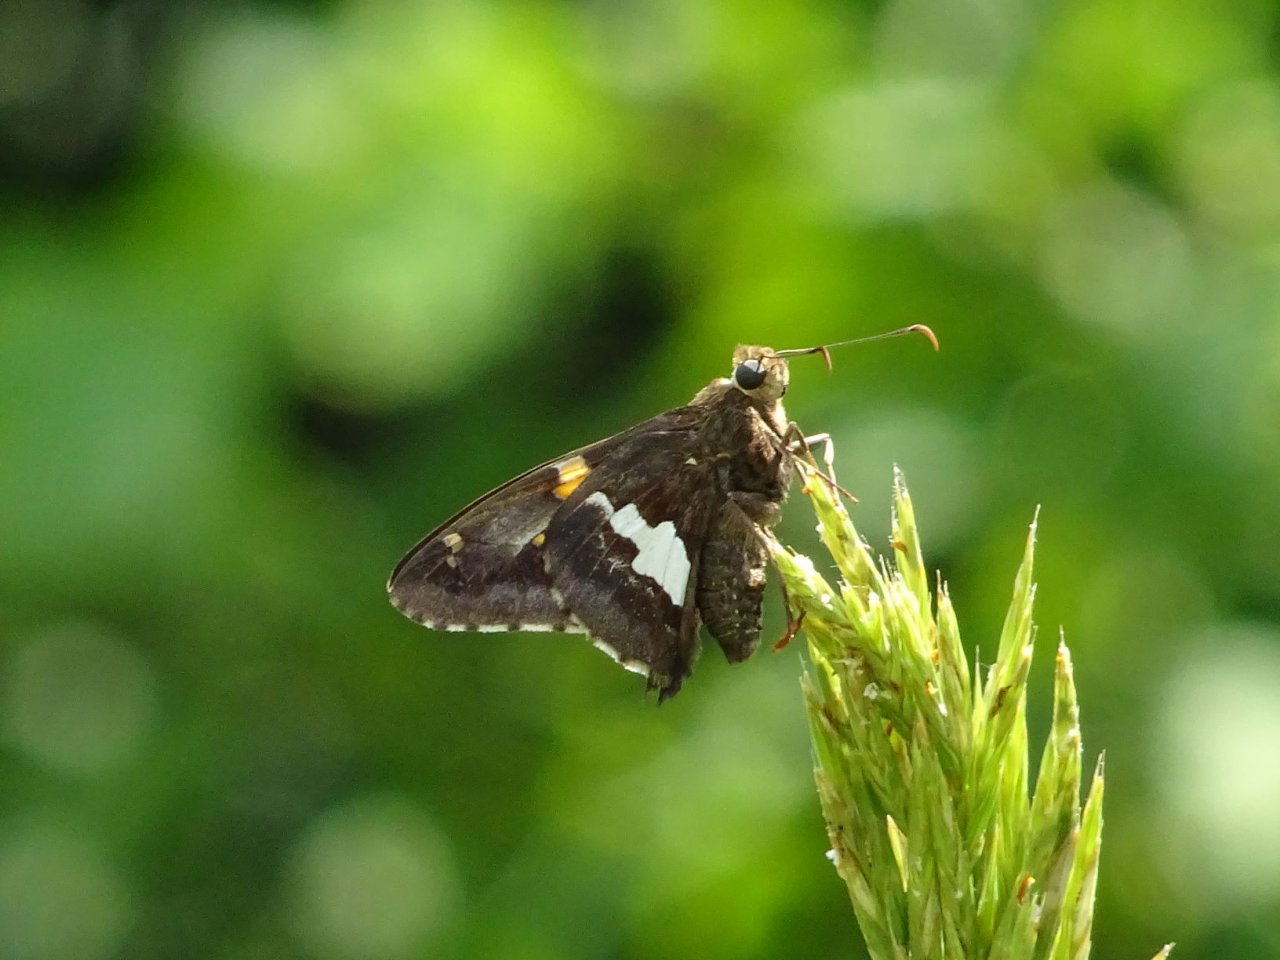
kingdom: Animalia
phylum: Arthropoda
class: Insecta
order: Lepidoptera
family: Hesperiidae
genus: Epargyreus
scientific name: Epargyreus clarus
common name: Silver-spotted Skipper
